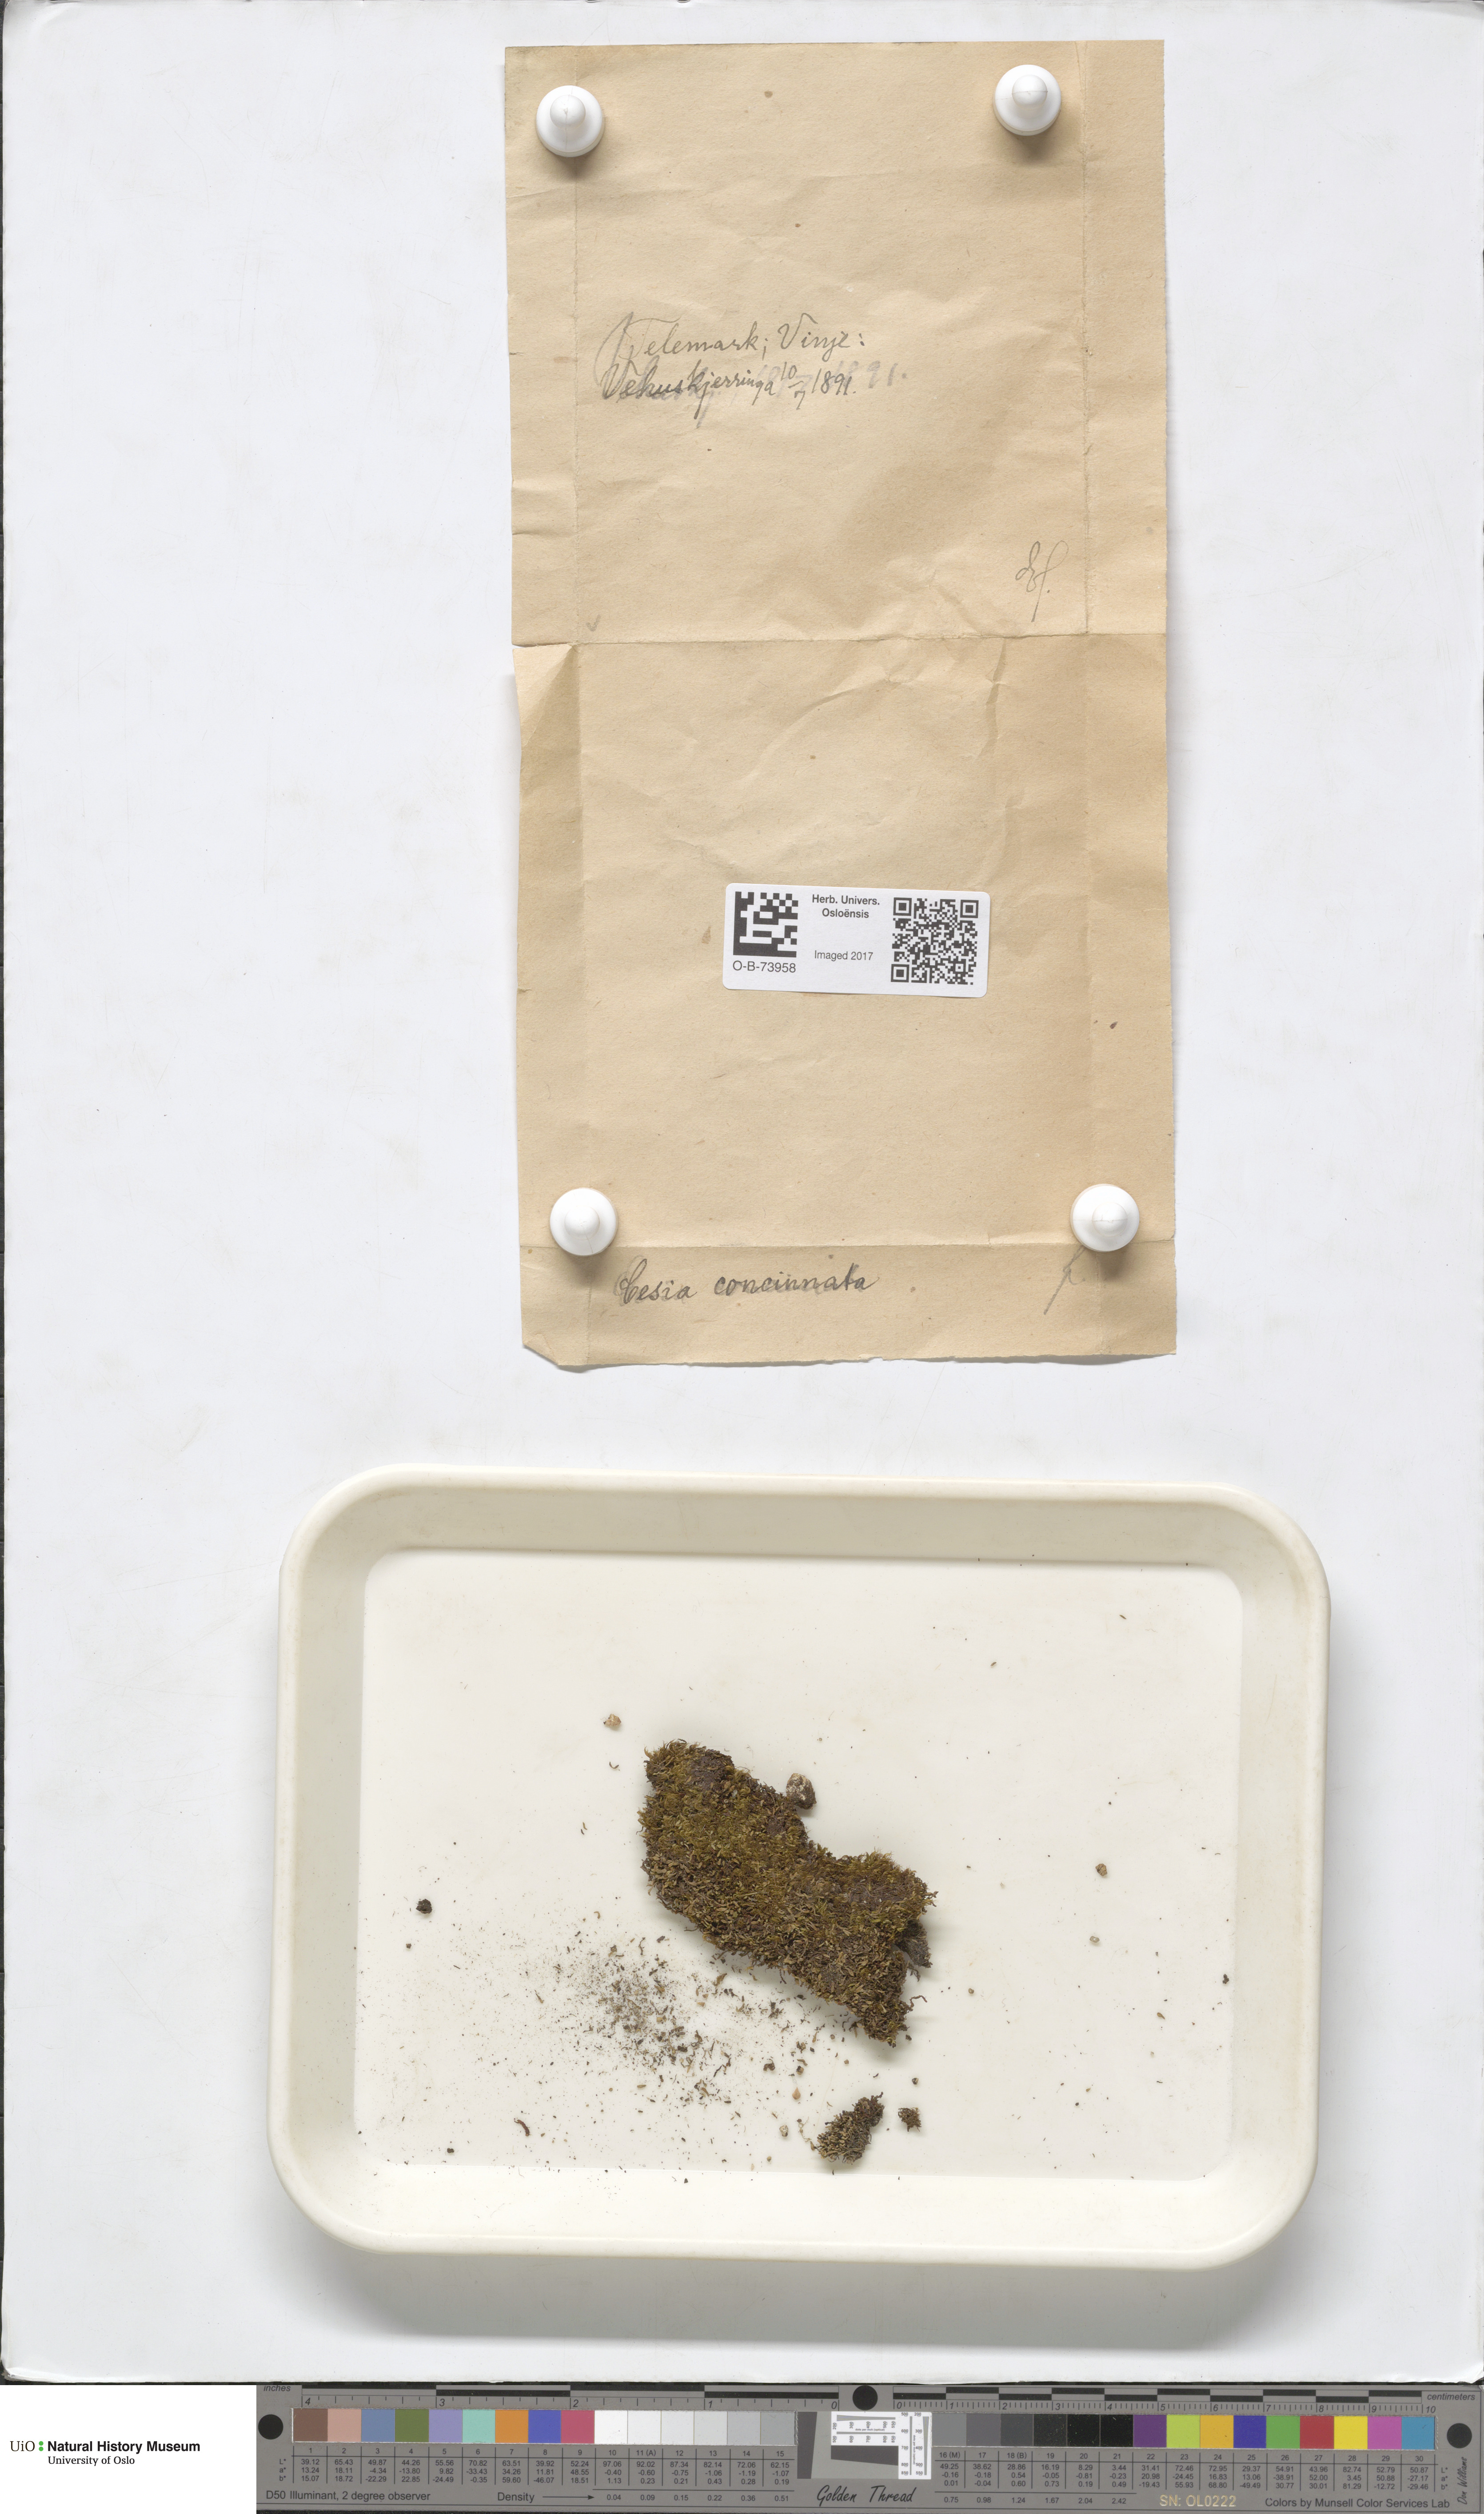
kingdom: Plantae
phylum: Marchantiophyta
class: Jungermanniopsida
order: Jungermanniales
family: Gymnomitriaceae
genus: Marsupella
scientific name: Marsupella apiculata
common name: Pointed frostwort
